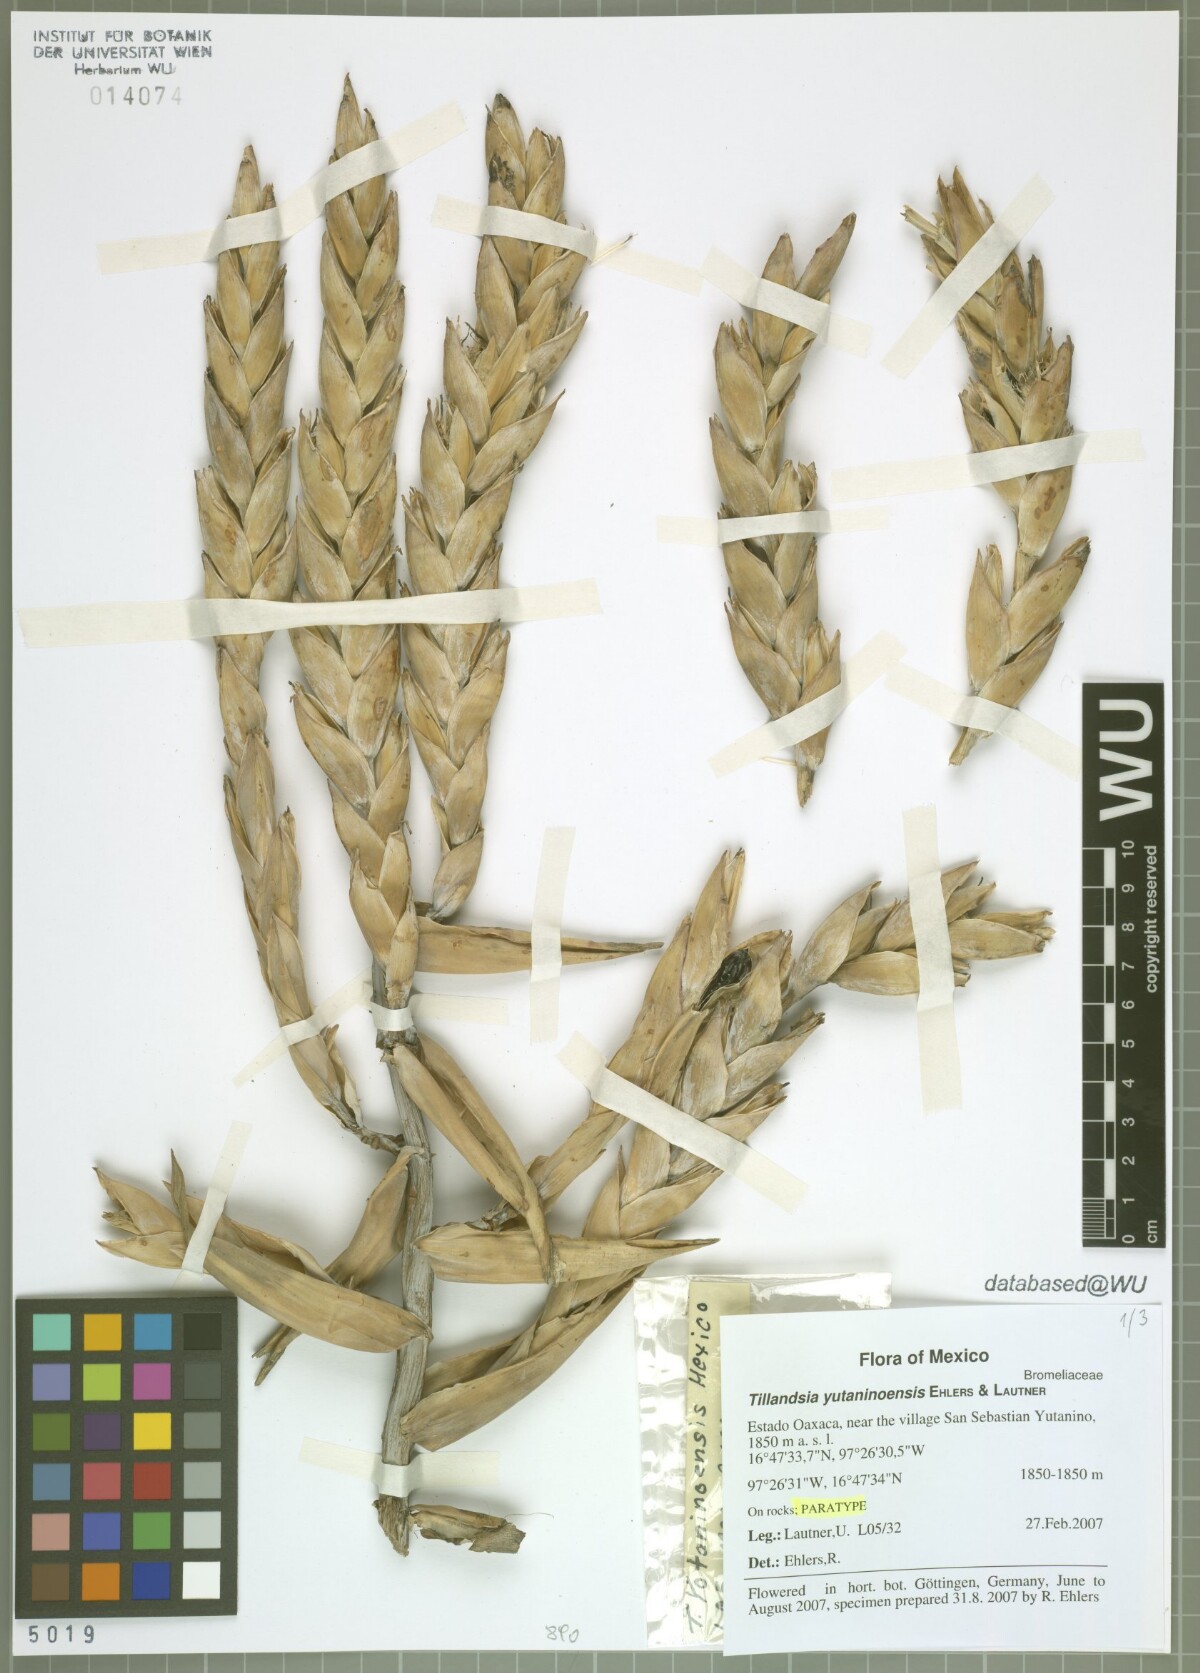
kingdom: Plantae
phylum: Tracheophyta
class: Liliopsida
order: Poales
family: Bromeliaceae
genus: Tillandsia
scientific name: Tillandsia yutaninoensis
